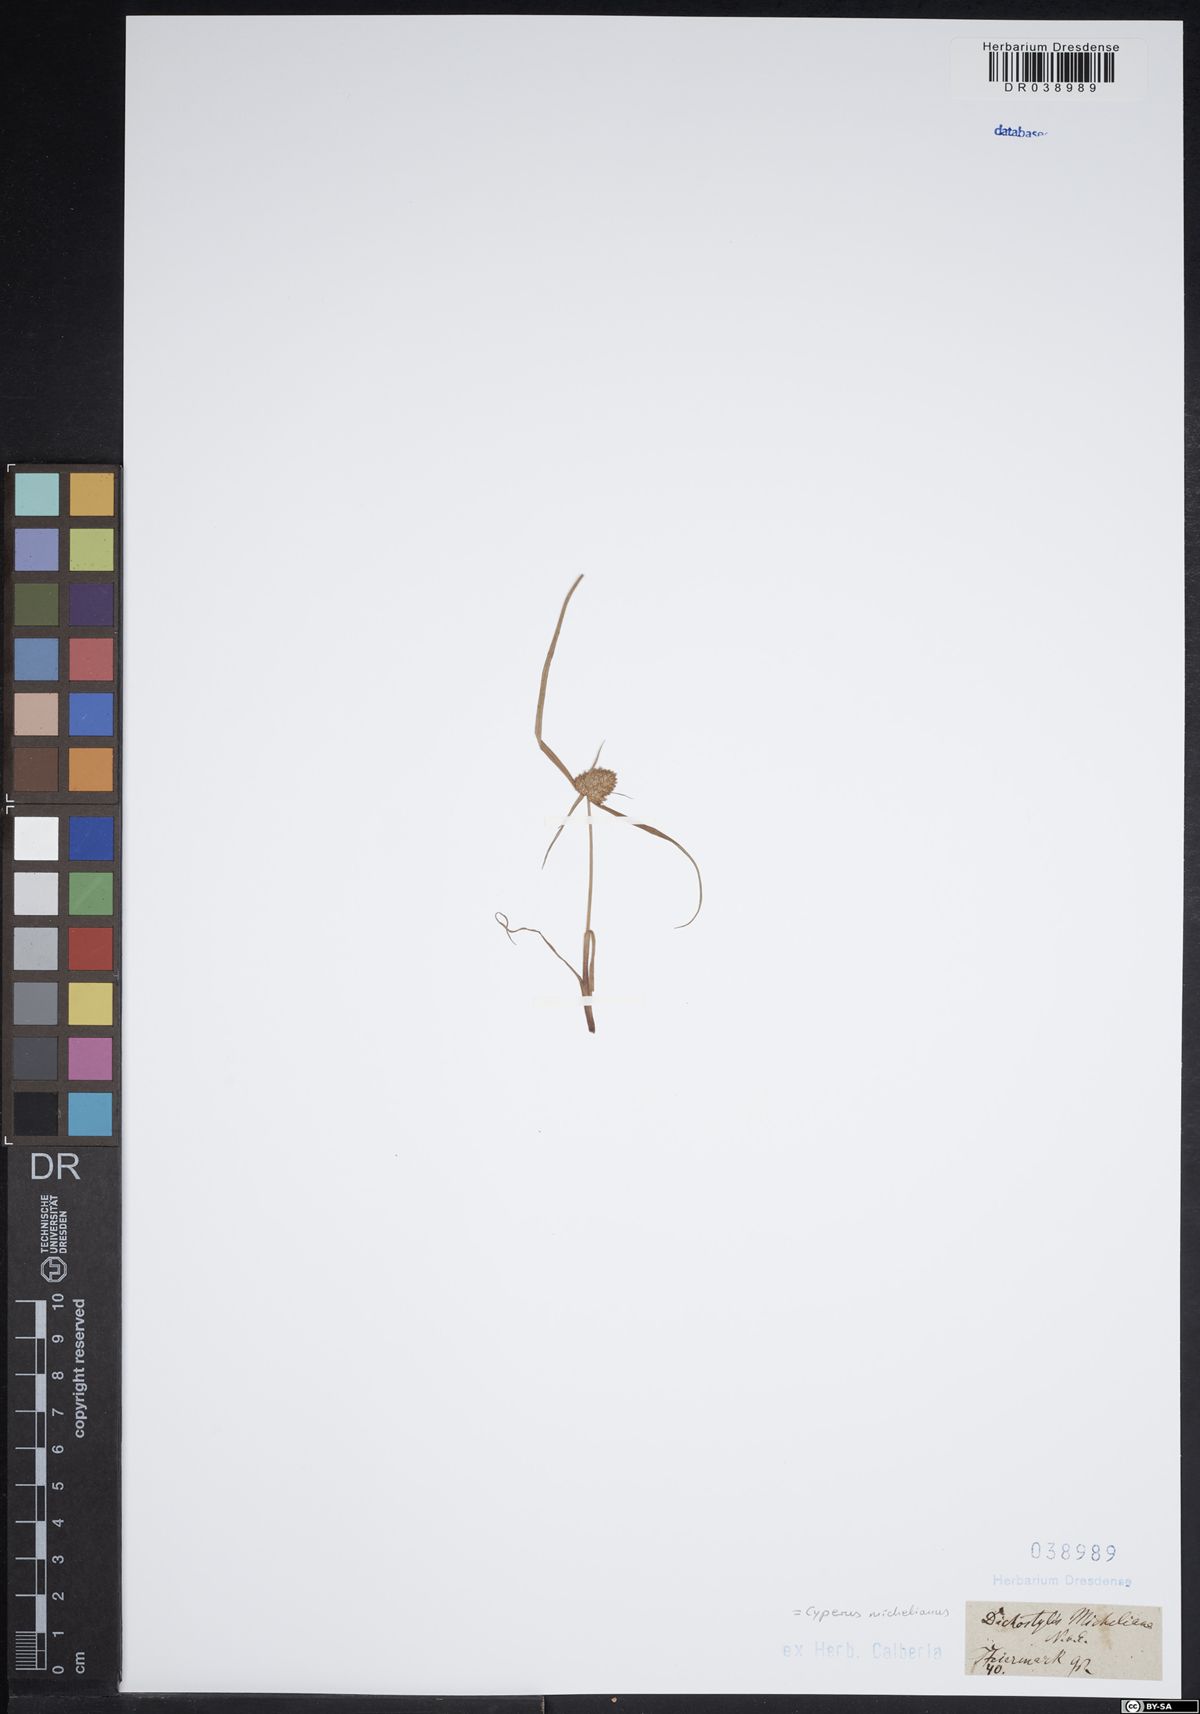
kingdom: Plantae
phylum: Tracheophyta
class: Liliopsida
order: Poales
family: Cyperaceae
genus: Cyperus
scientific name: Cyperus michelianus
